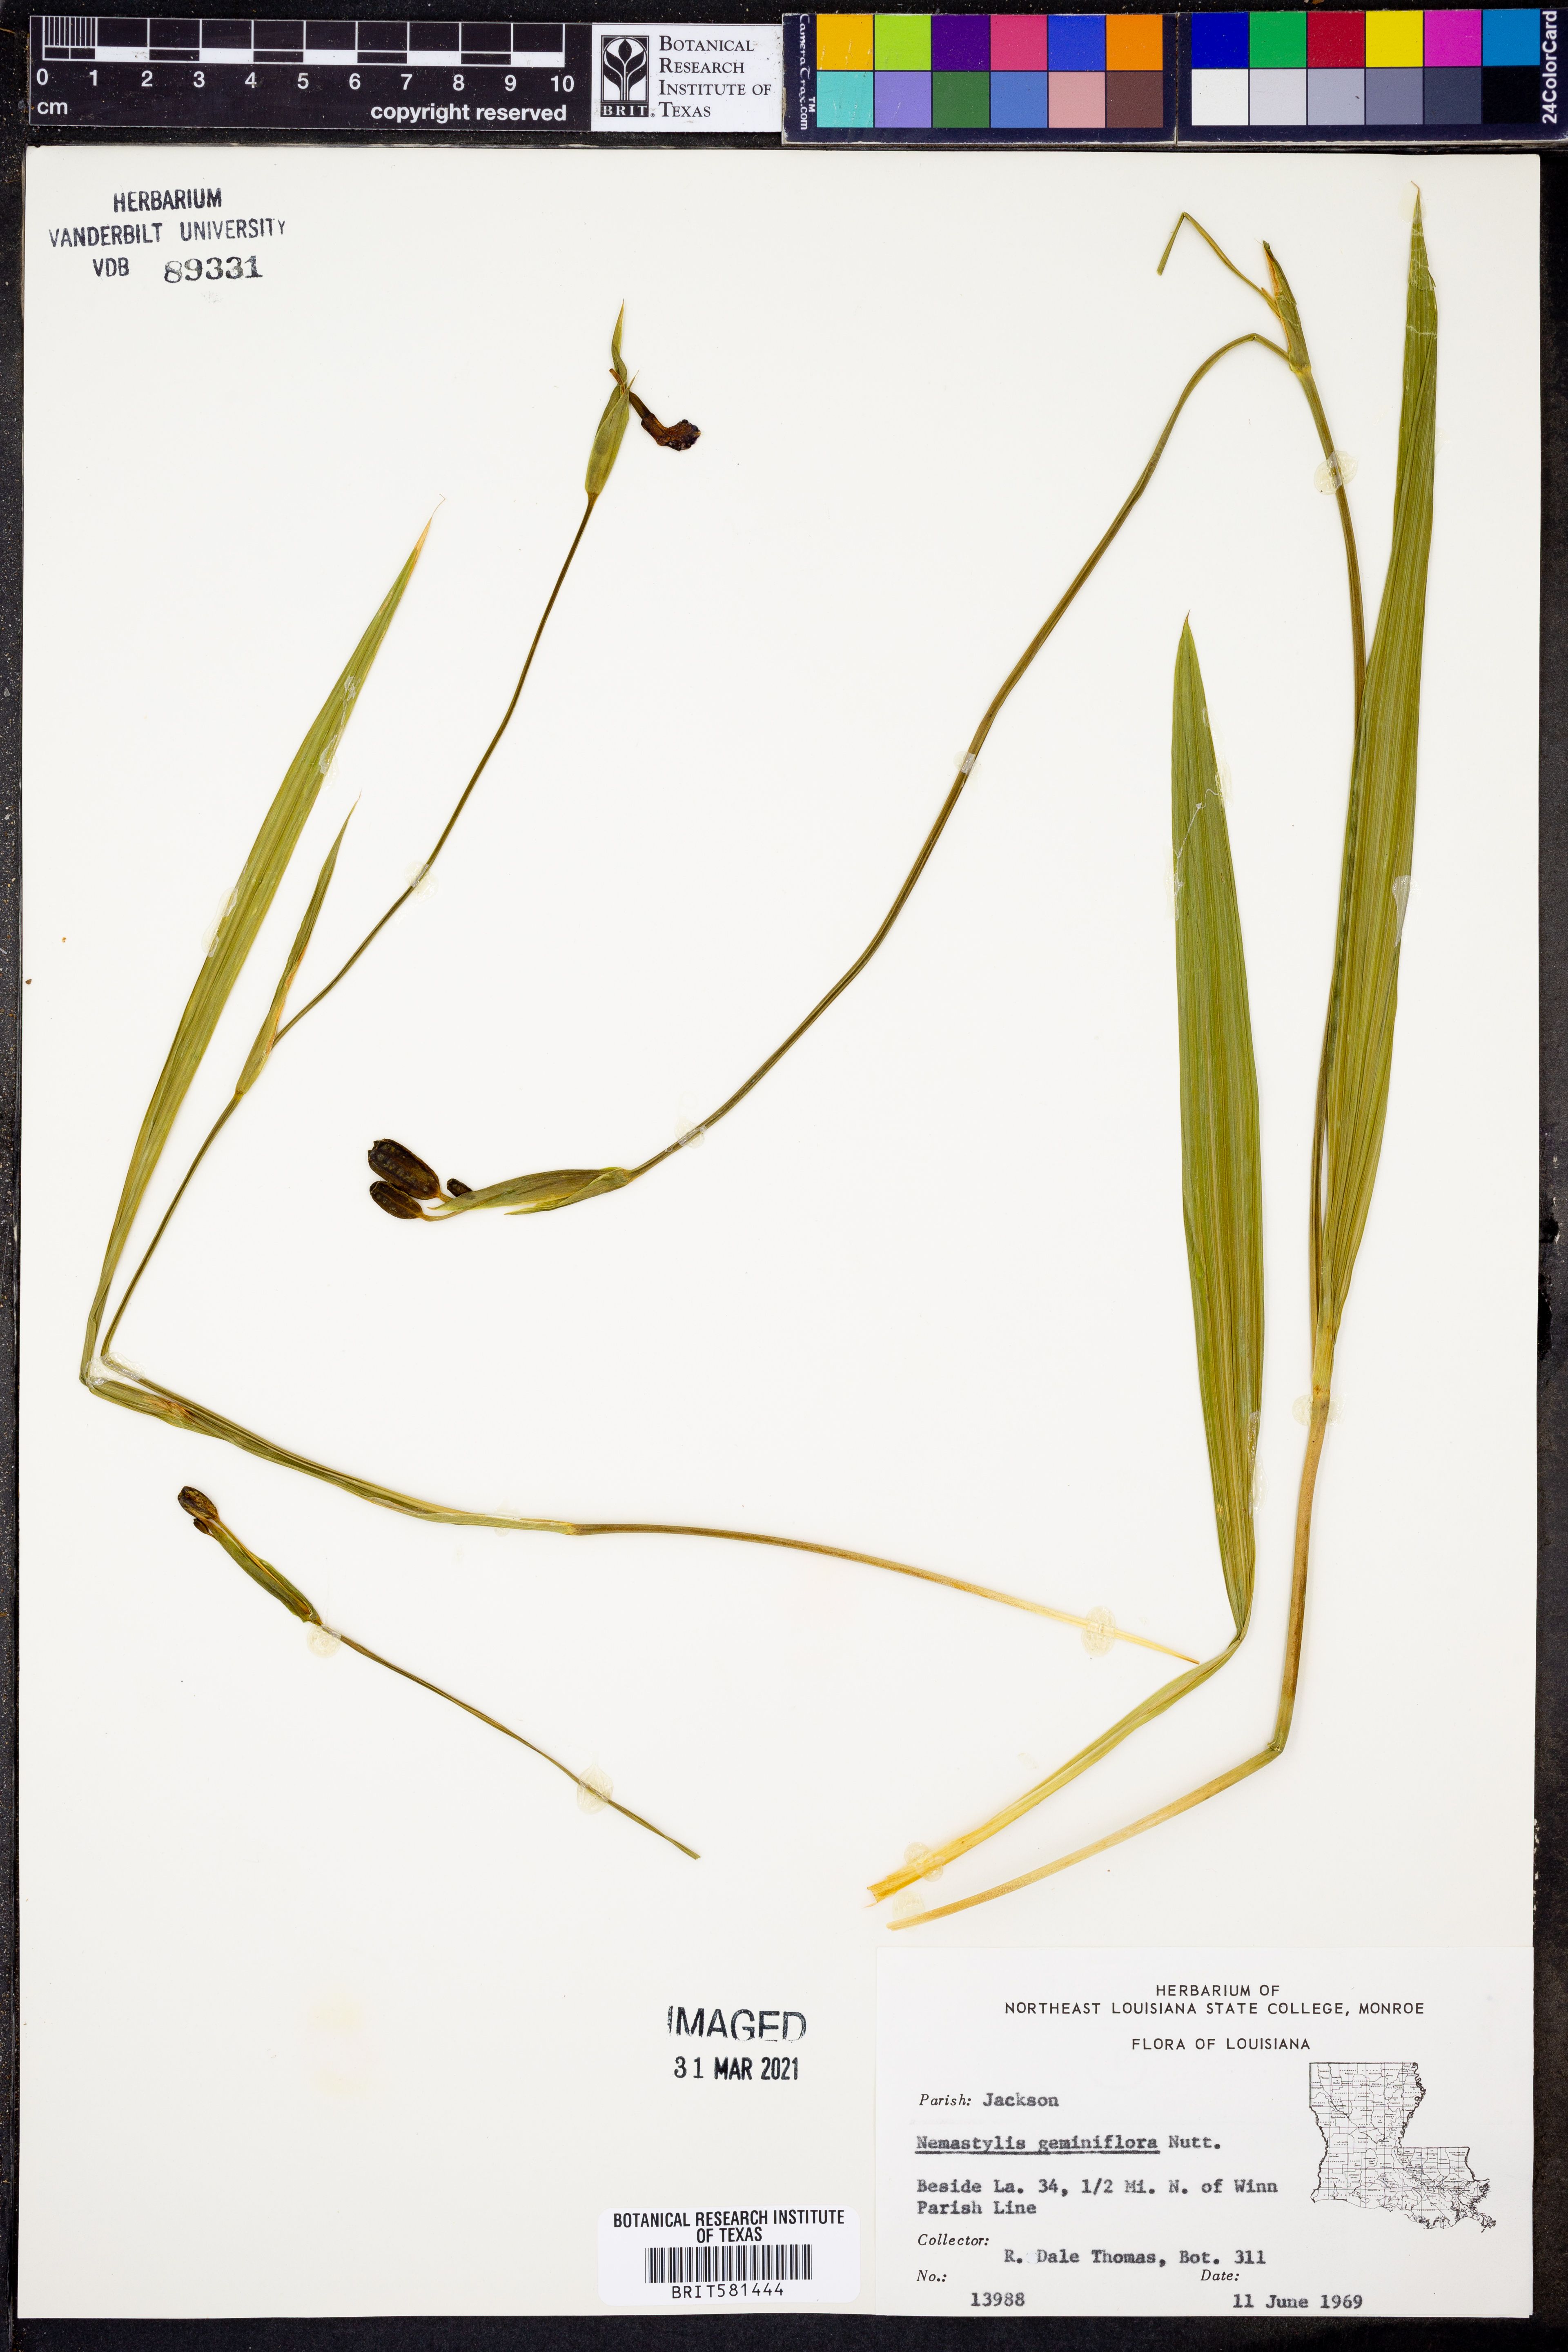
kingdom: Plantae
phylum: Tracheophyta
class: Liliopsida
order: Asparagales
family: Iridaceae
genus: Nemastylis
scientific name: Nemastylis geminiflora
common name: Prairie celestial
